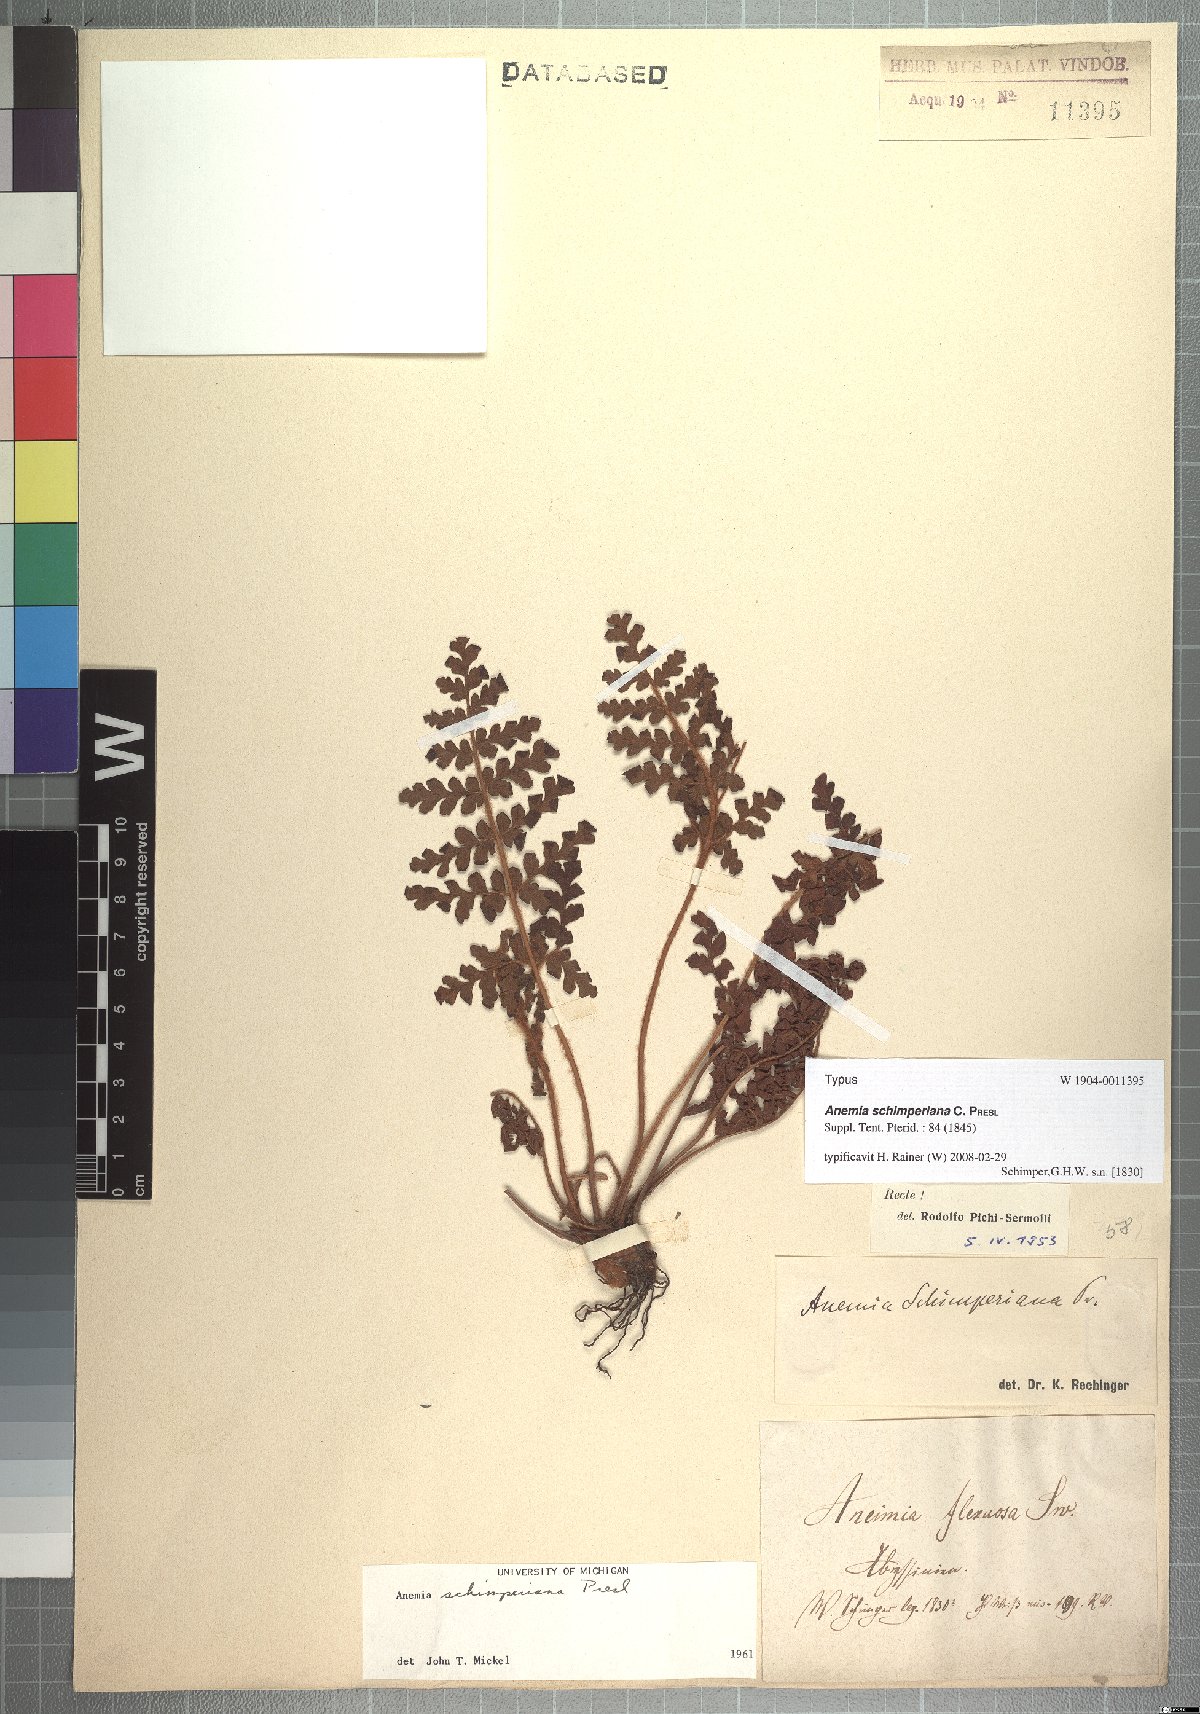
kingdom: Plantae
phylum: Tracheophyta
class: Polypodiopsida
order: Schizaeales
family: Anemiaceae
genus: Anemia
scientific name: Anemia schimperiana
